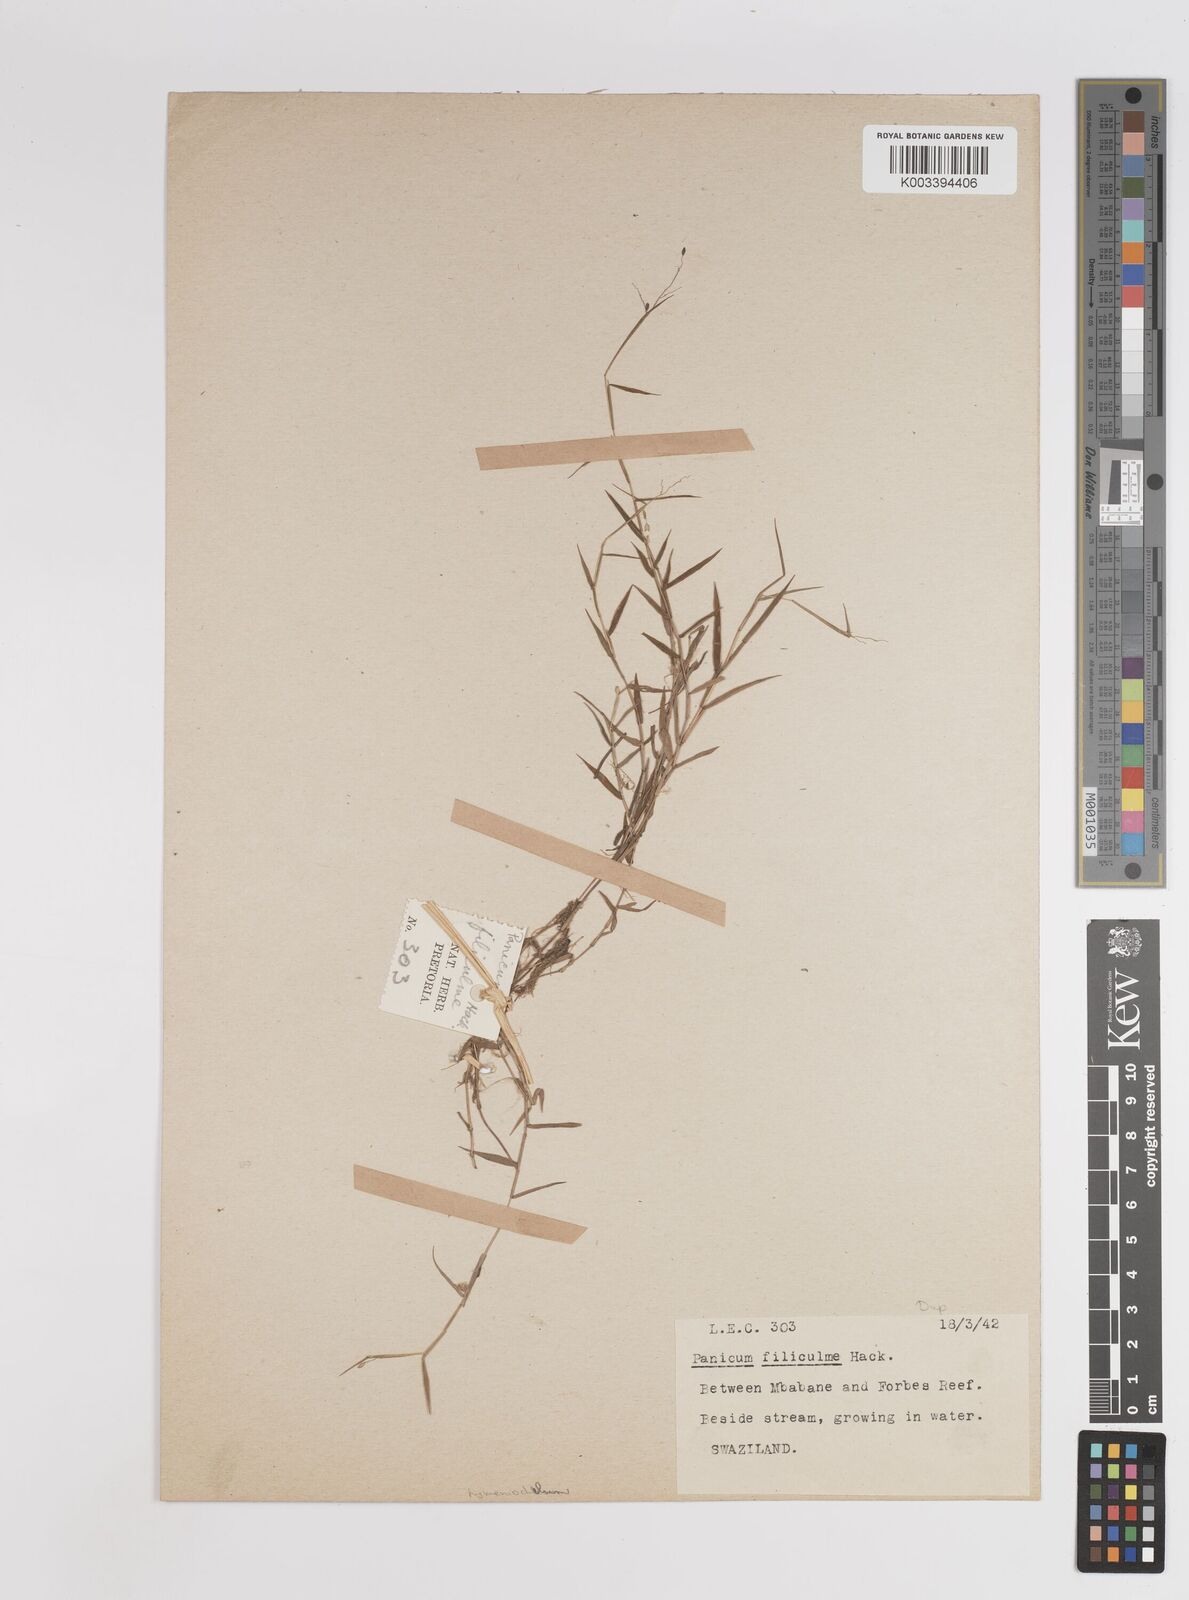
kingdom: Plantae
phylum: Tracheophyta
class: Liliopsida
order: Poales
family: Poaceae
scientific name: Poaceae
